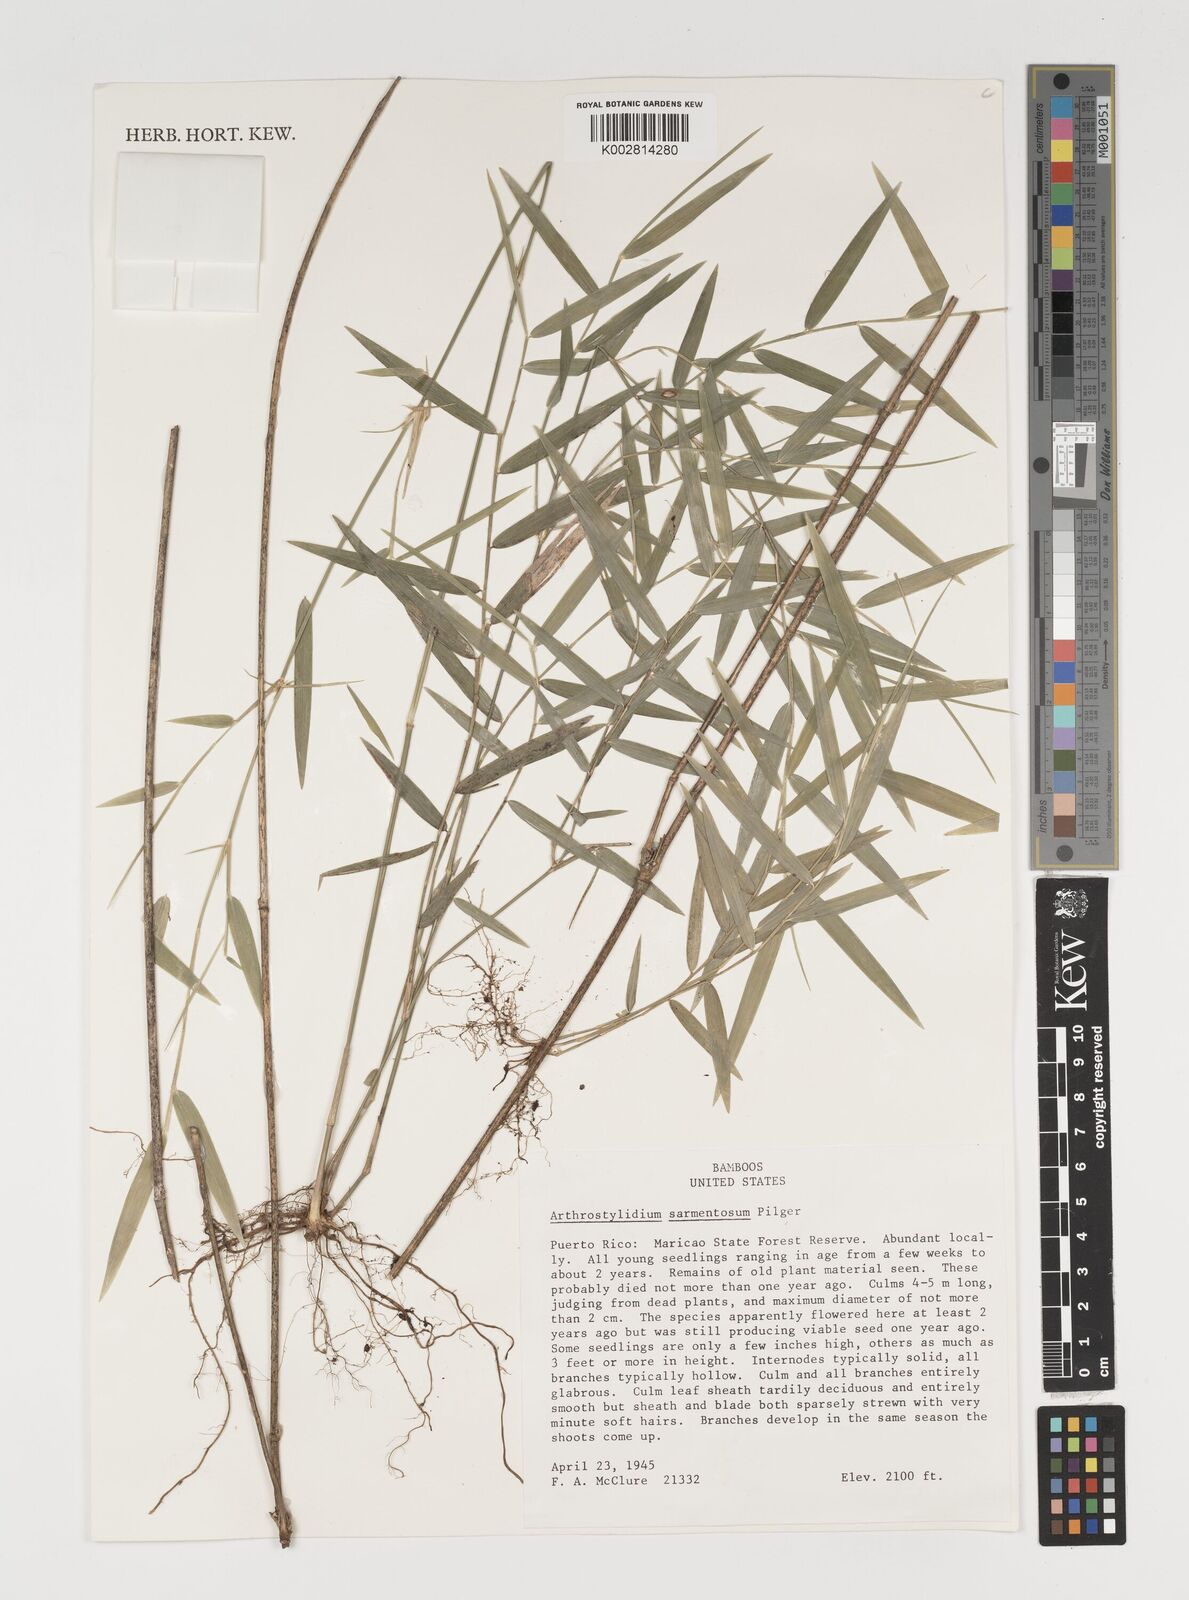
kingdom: Plantae
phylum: Tracheophyta
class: Liliopsida
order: Poales
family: Poaceae
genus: Arthrostylidium
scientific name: Arthrostylidium sarmentosum
